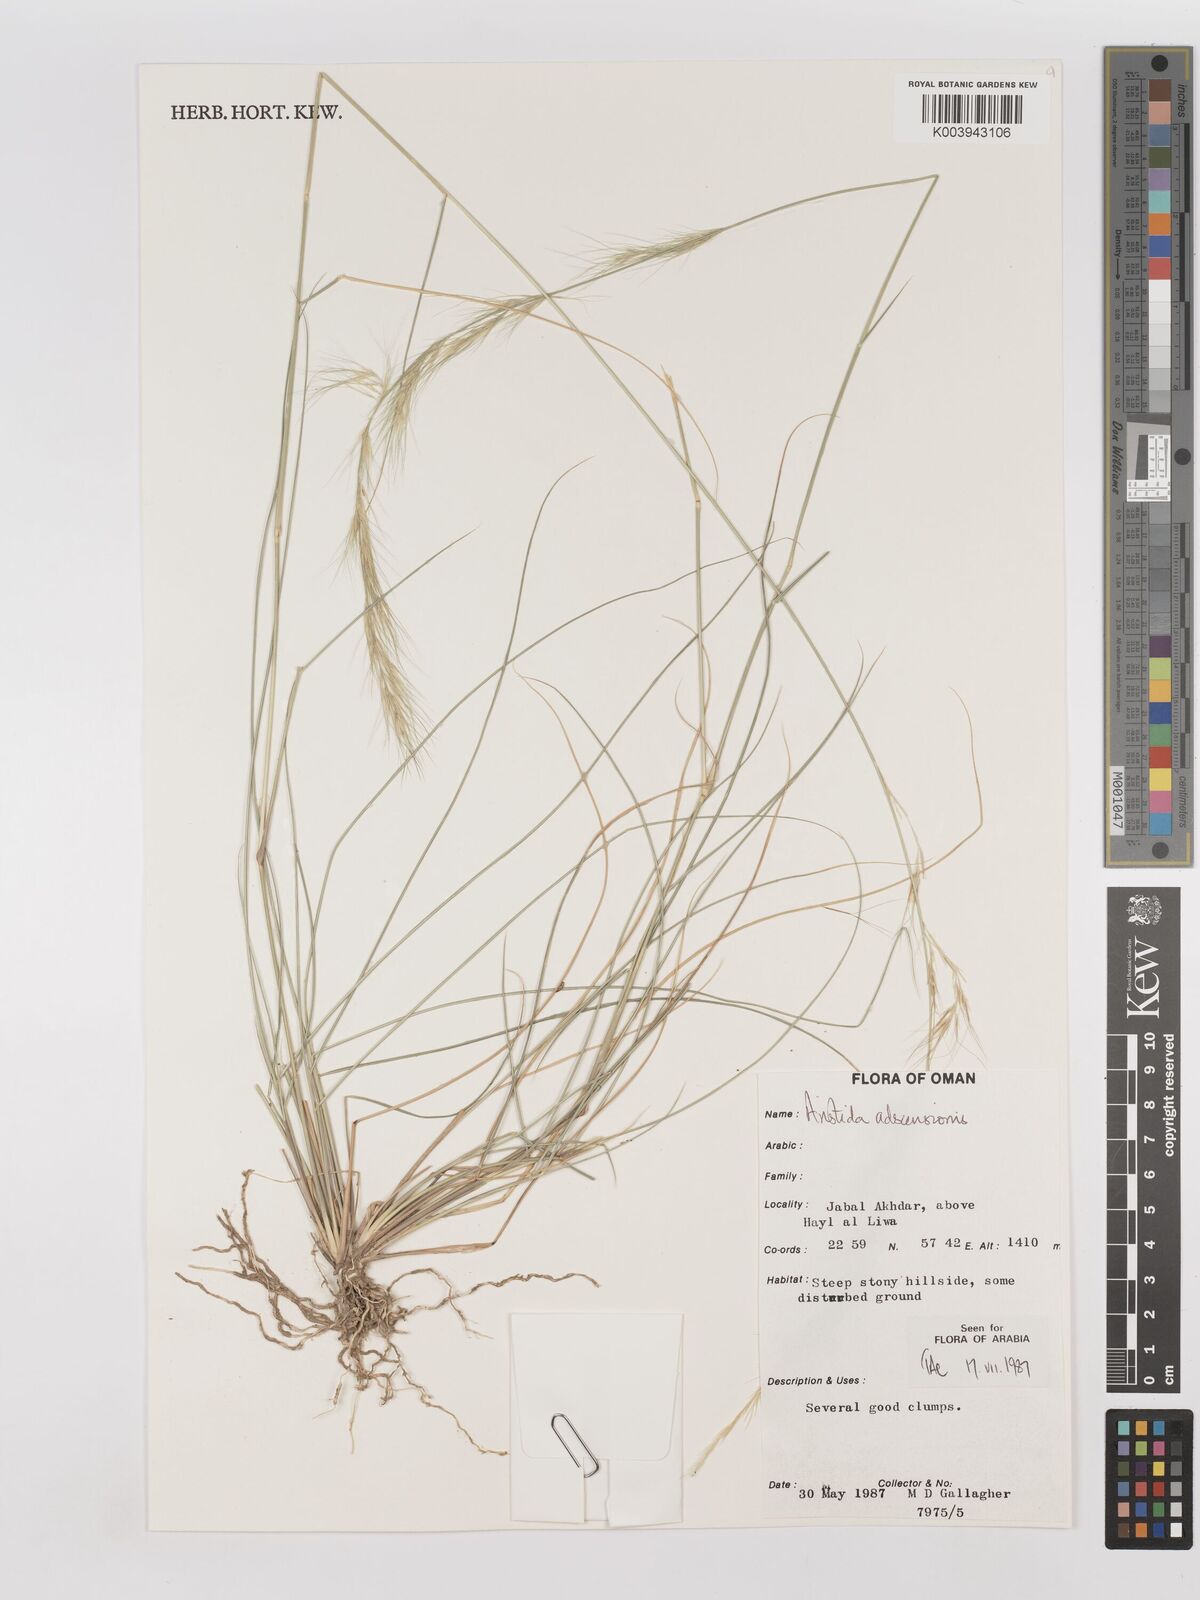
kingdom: Plantae
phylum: Tracheophyta
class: Liliopsida
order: Poales
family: Poaceae
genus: Aristida
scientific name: Aristida adscensionis
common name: Sixweeks threeawn
